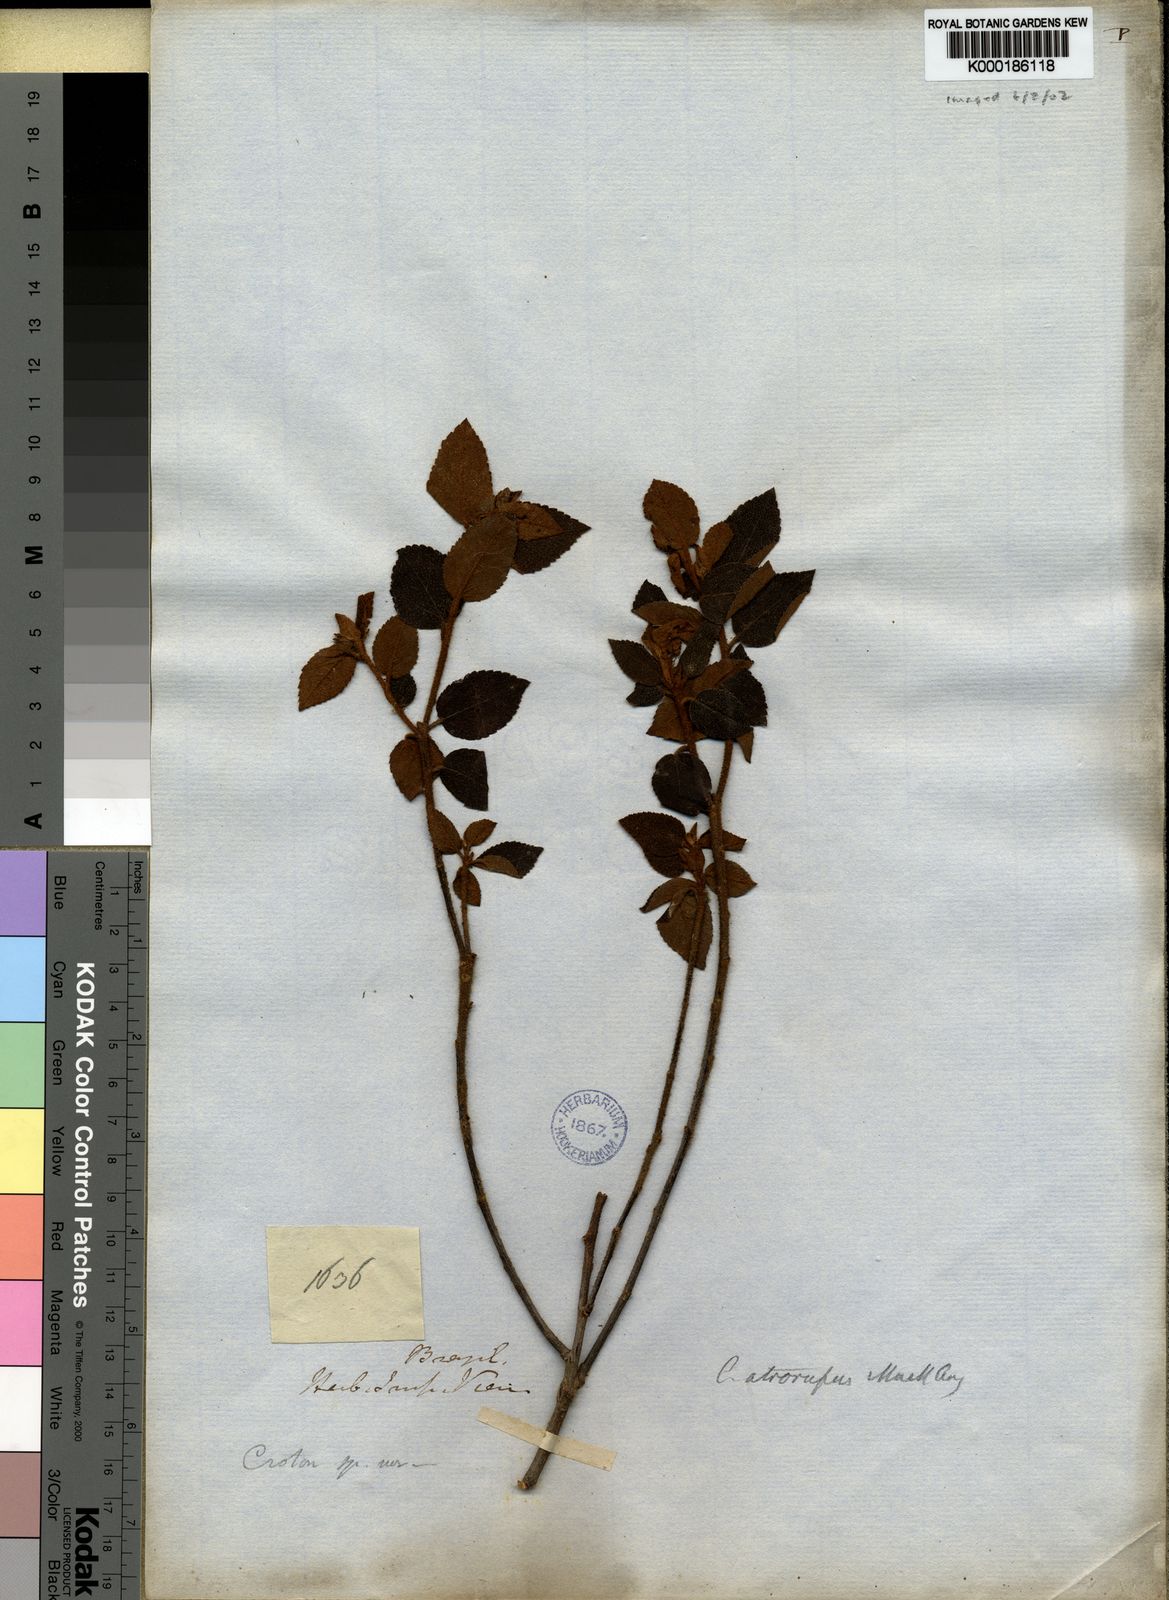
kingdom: Plantae
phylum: Tracheophyta
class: Magnoliopsida
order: Malpighiales
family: Euphorbiaceae
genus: Croton
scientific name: Croton
